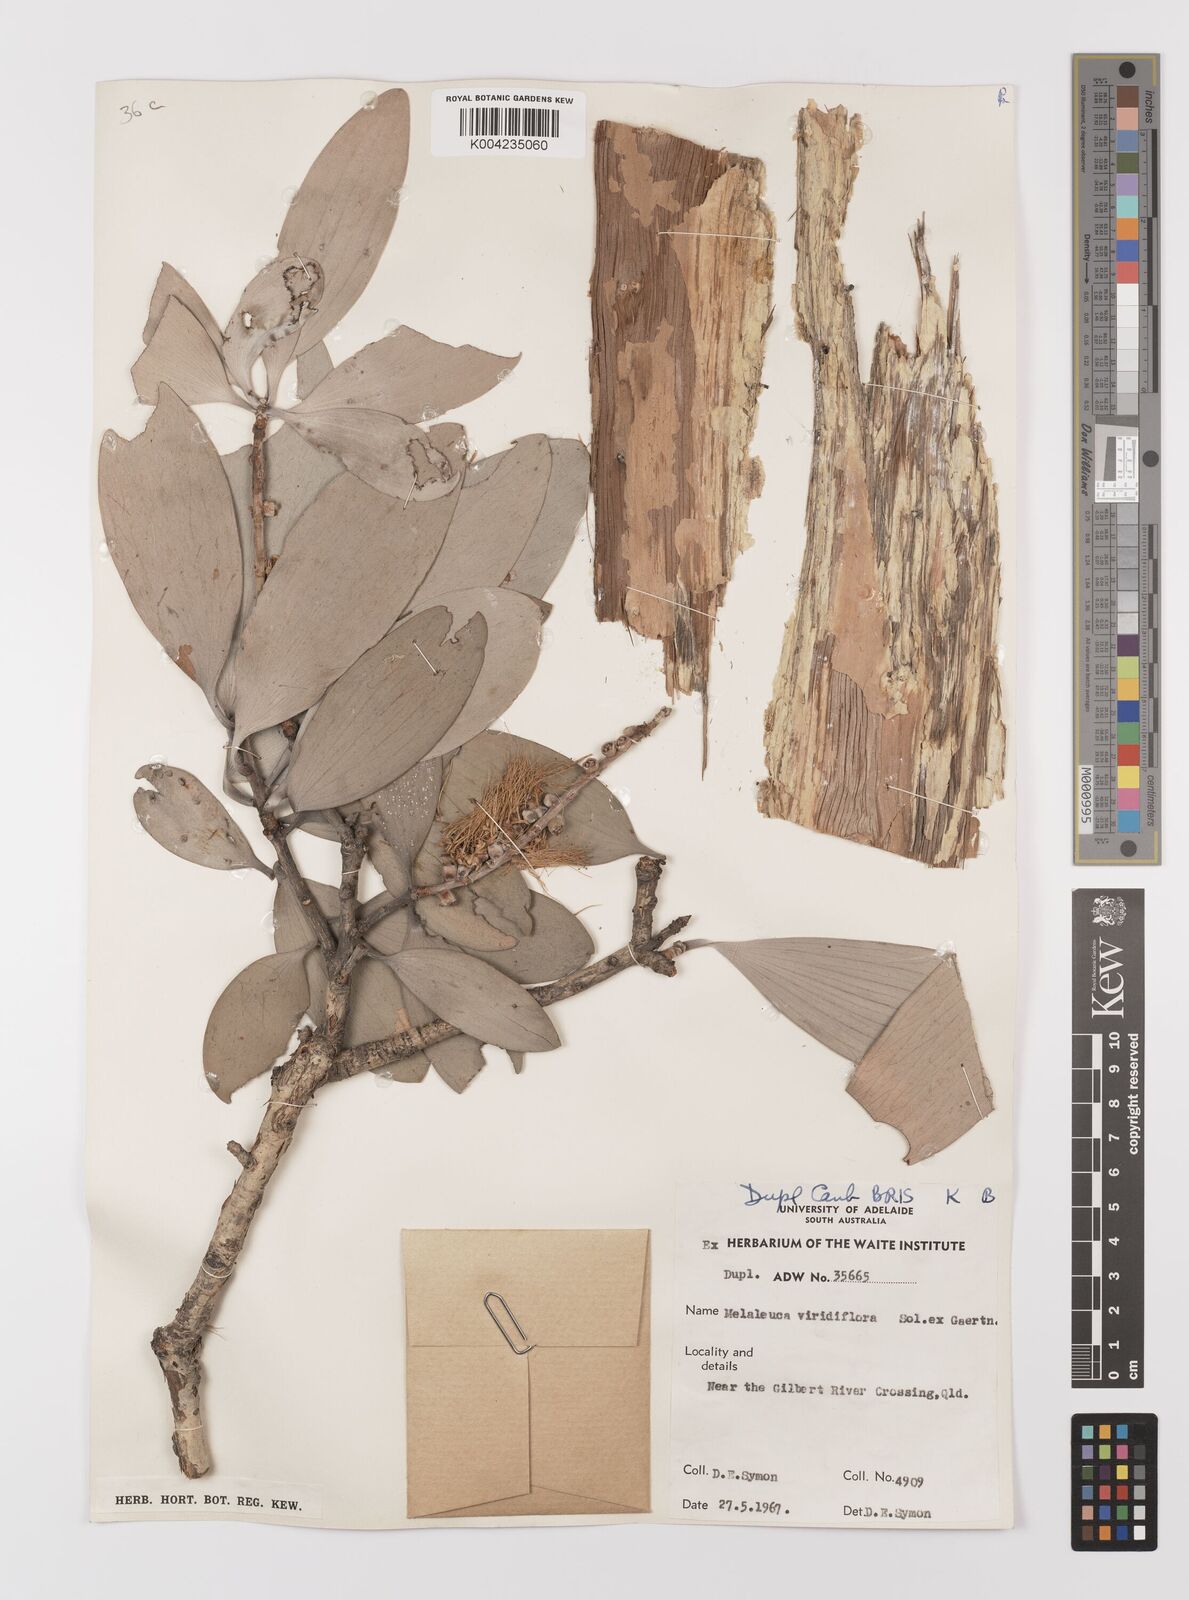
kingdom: Plantae
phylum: Tracheophyta
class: Magnoliopsida
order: Myrtales
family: Myrtaceae
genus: Melaleuca
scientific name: Melaleuca viridiflora
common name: Brown-leaved paperbark
